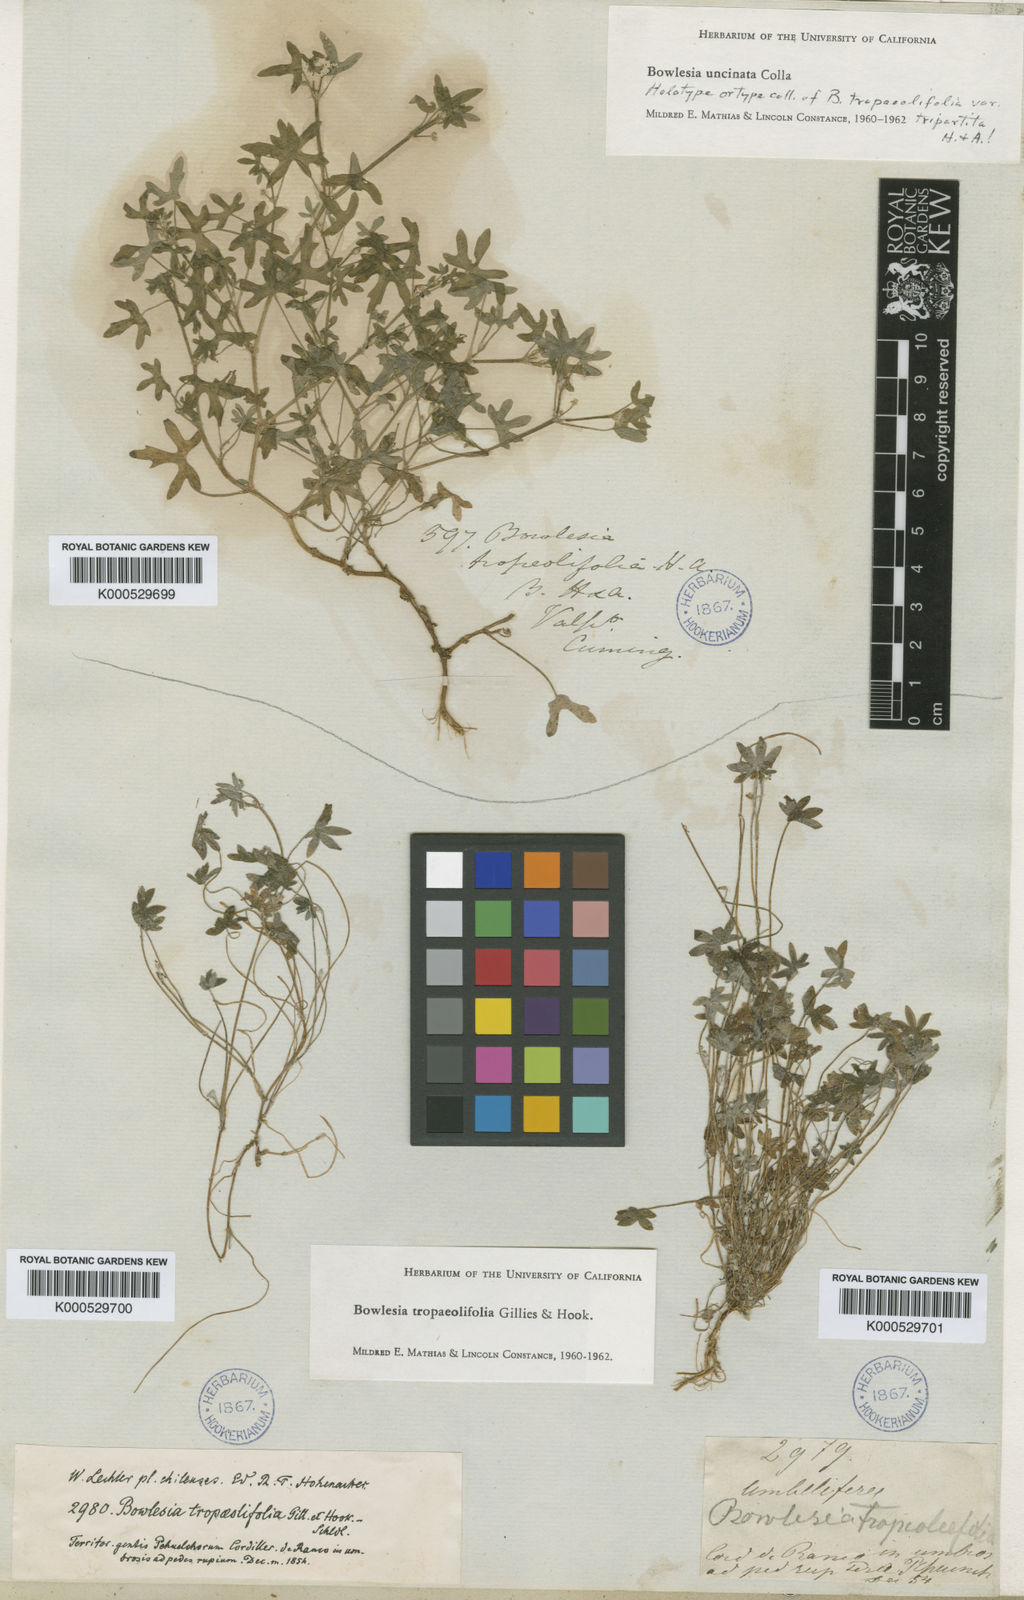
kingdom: Plantae
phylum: Tracheophyta
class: Magnoliopsida
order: Apiales
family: Apiaceae
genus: Bowlesia
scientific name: Bowlesia tropaeolifolia
